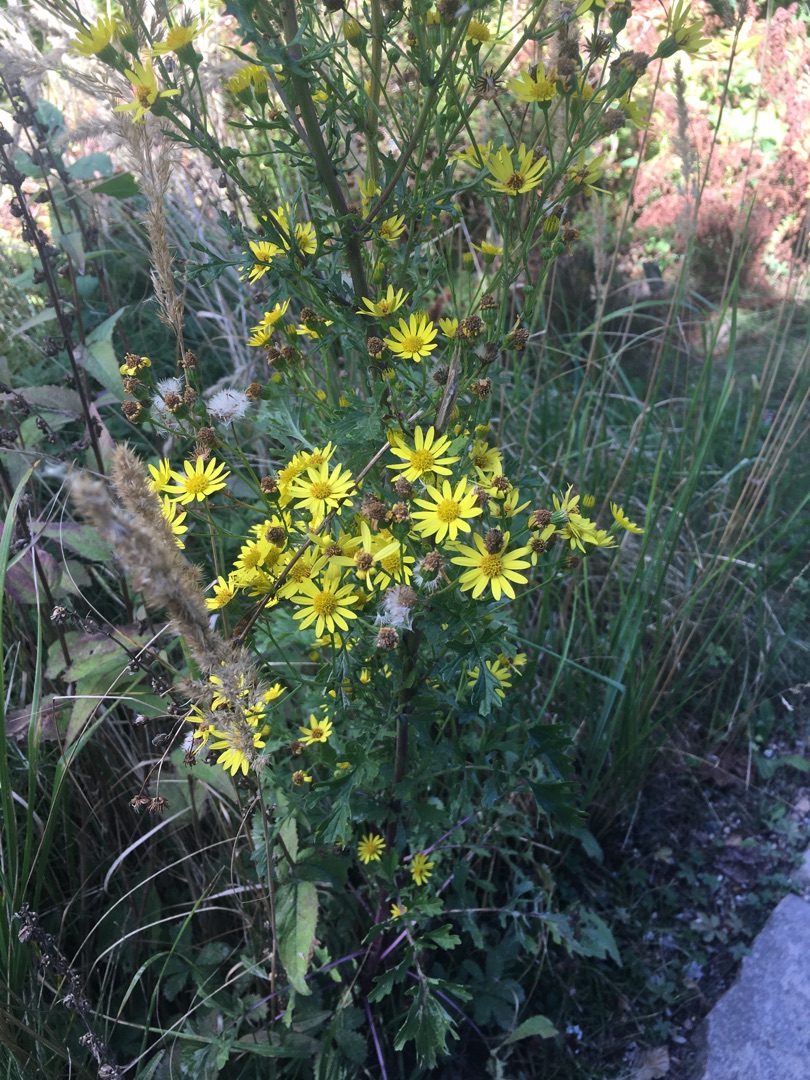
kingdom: Plantae
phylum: Tracheophyta
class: Magnoliopsida
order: Asterales
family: Asteraceae
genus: Jacobaea
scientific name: Jacobaea
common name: Jacobaea
